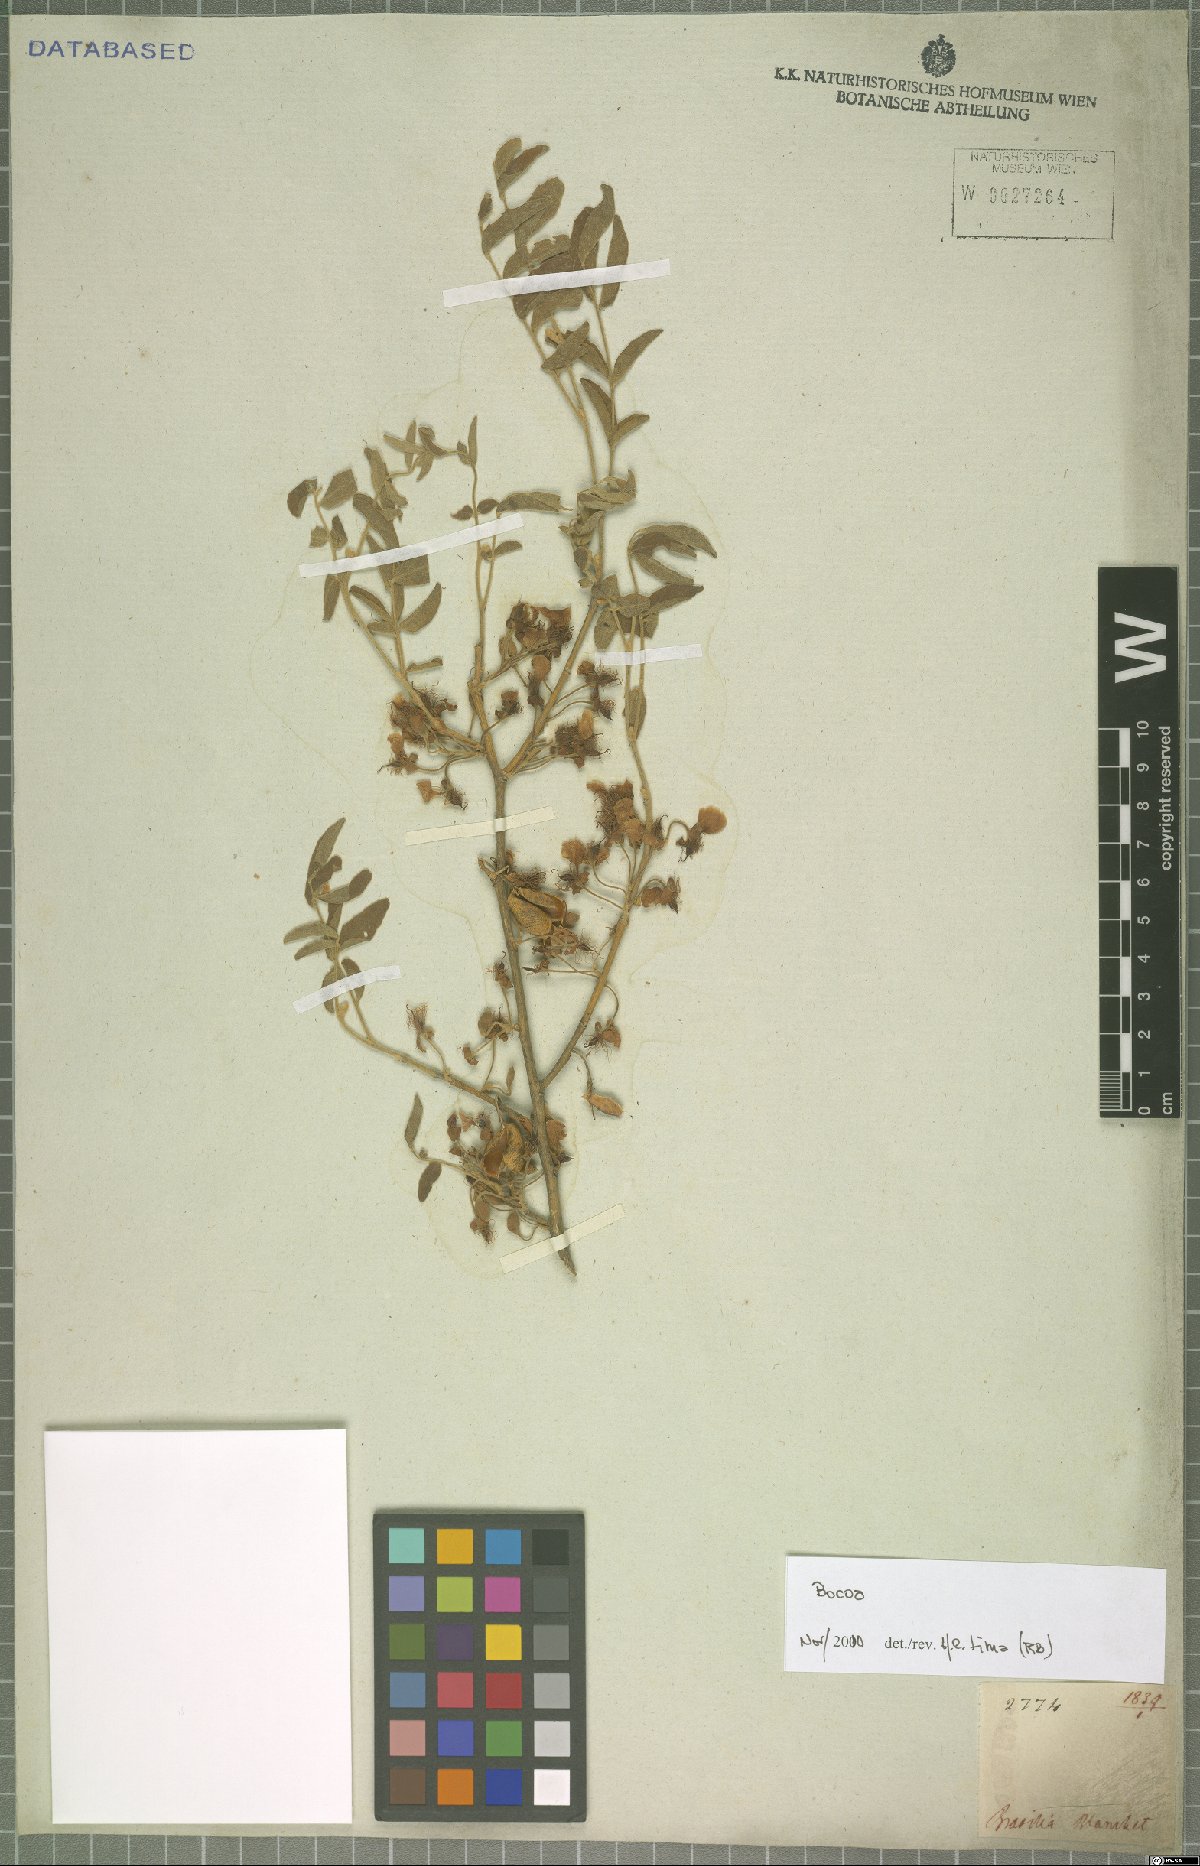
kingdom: Plantae
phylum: Tracheophyta
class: Magnoliopsida
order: Fabales
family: Fabaceae
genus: Bocoa
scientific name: Bocoa
